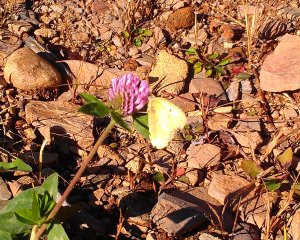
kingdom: Animalia
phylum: Arthropoda
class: Insecta
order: Lepidoptera
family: Pieridae
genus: Colias
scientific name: Colias philodice
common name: Clouded Sulphur
